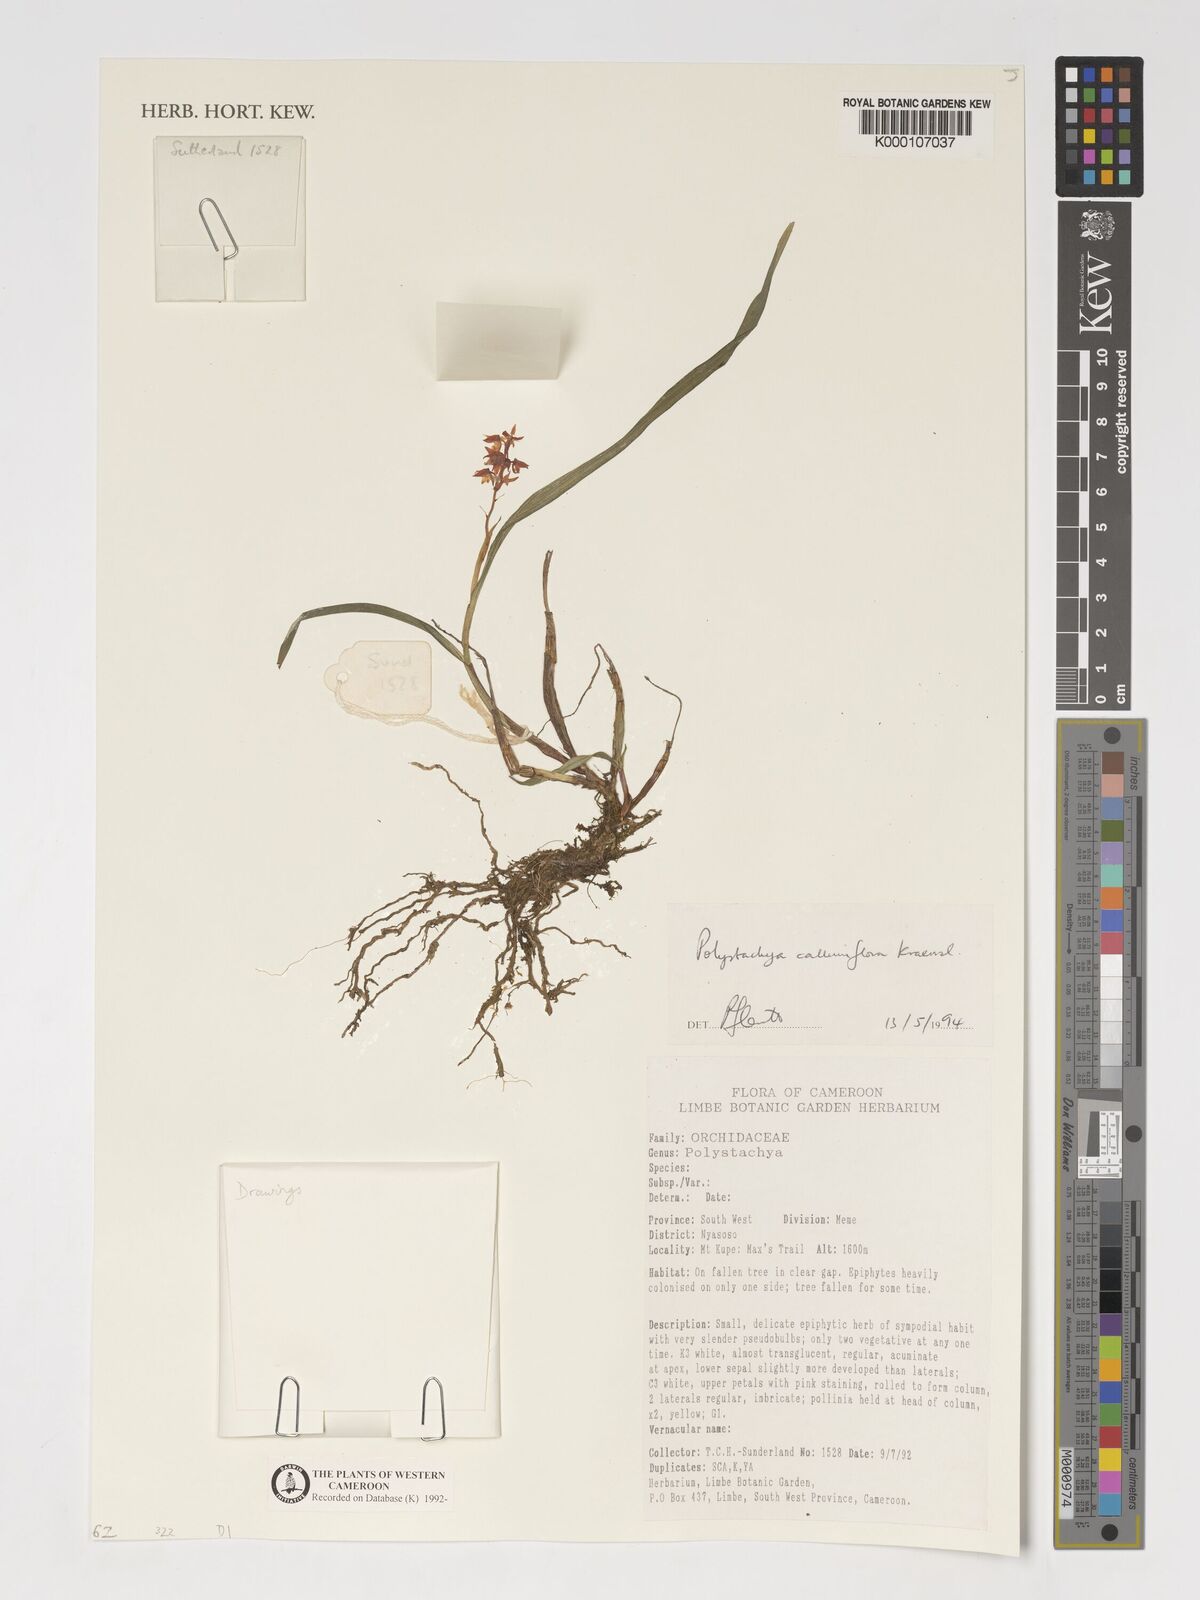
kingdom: Plantae
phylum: Tracheophyta
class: Liliopsida
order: Asparagales
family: Orchidaceae
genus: Polystachya
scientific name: Polystachya calluniflora
